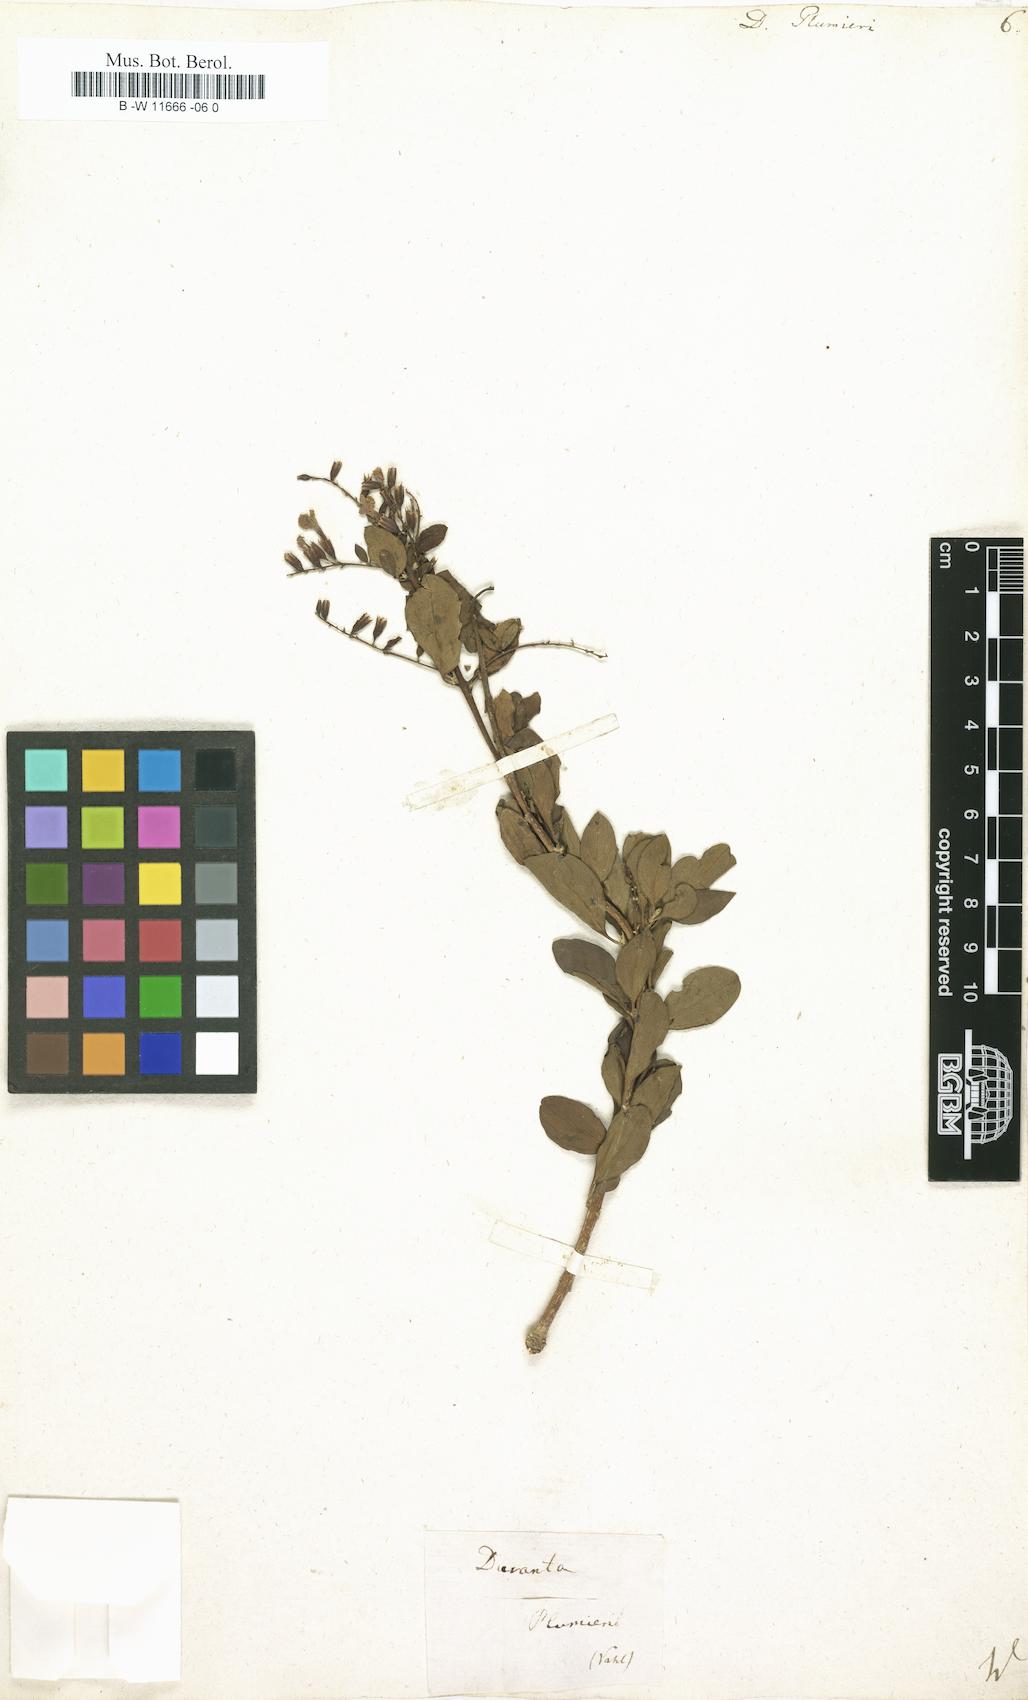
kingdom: Plantae
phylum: Tracheophyta
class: Magnoliopsida
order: Lamiales
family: Verbenaceae
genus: Duranta
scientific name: Duranta erecta
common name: Golden dewdrops
